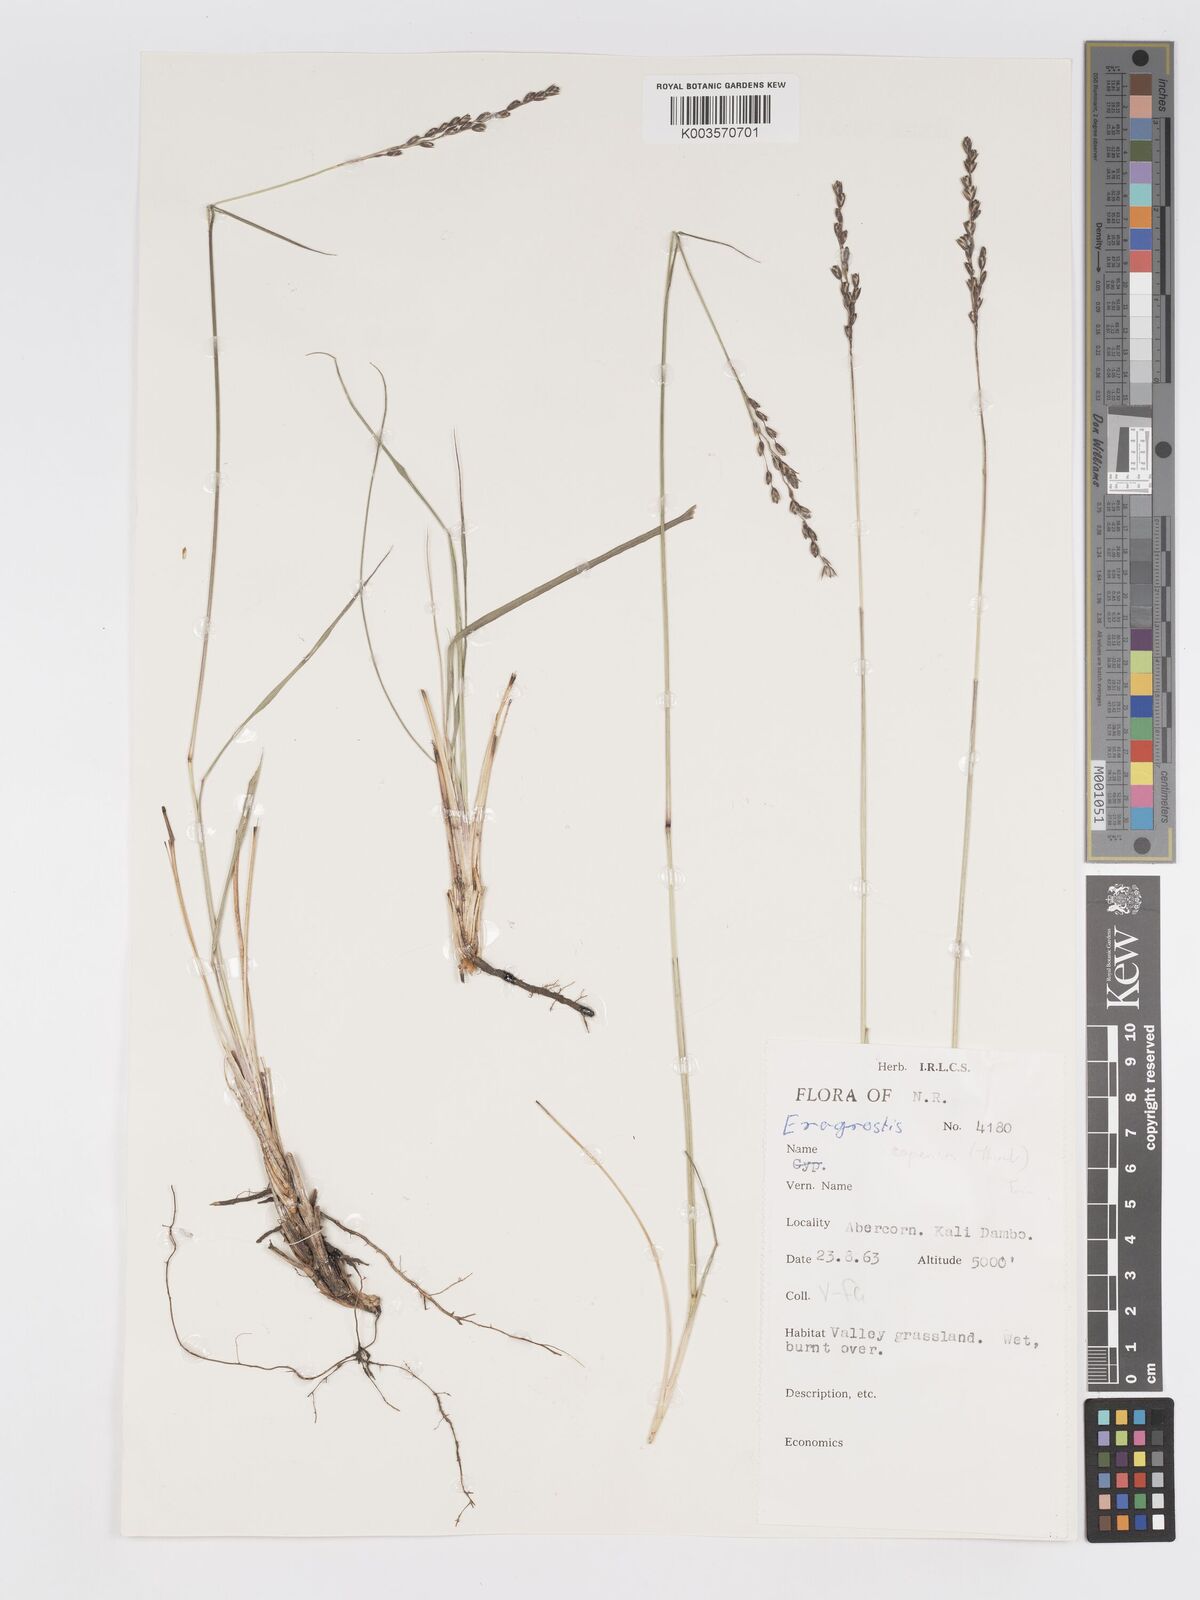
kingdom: Plantae
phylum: Tracheophyta
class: Liliopsida
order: Poales
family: Poaceae
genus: Eragrostis
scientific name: Eragrostis capensis
